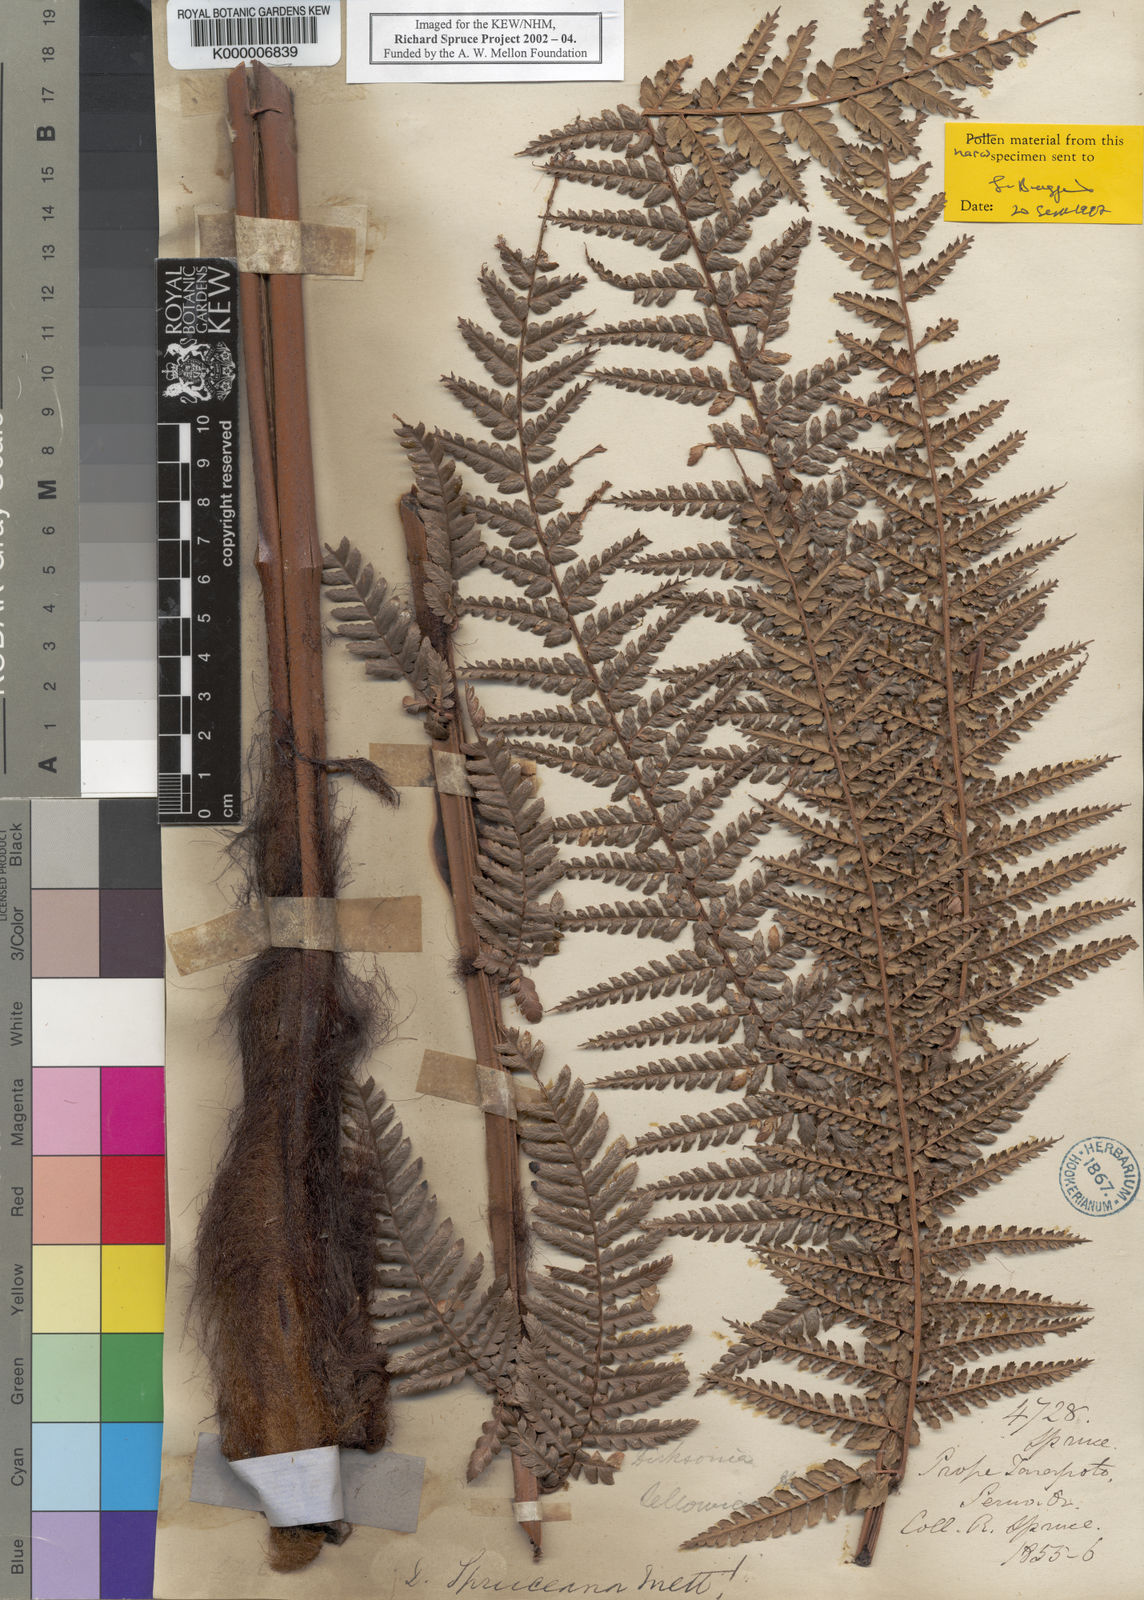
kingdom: Plantae
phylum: Tracheophyta
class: Polypodiopsida
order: Cyatheales
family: Dicksoniaceae
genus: Dicksonia
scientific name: Dicksonia
